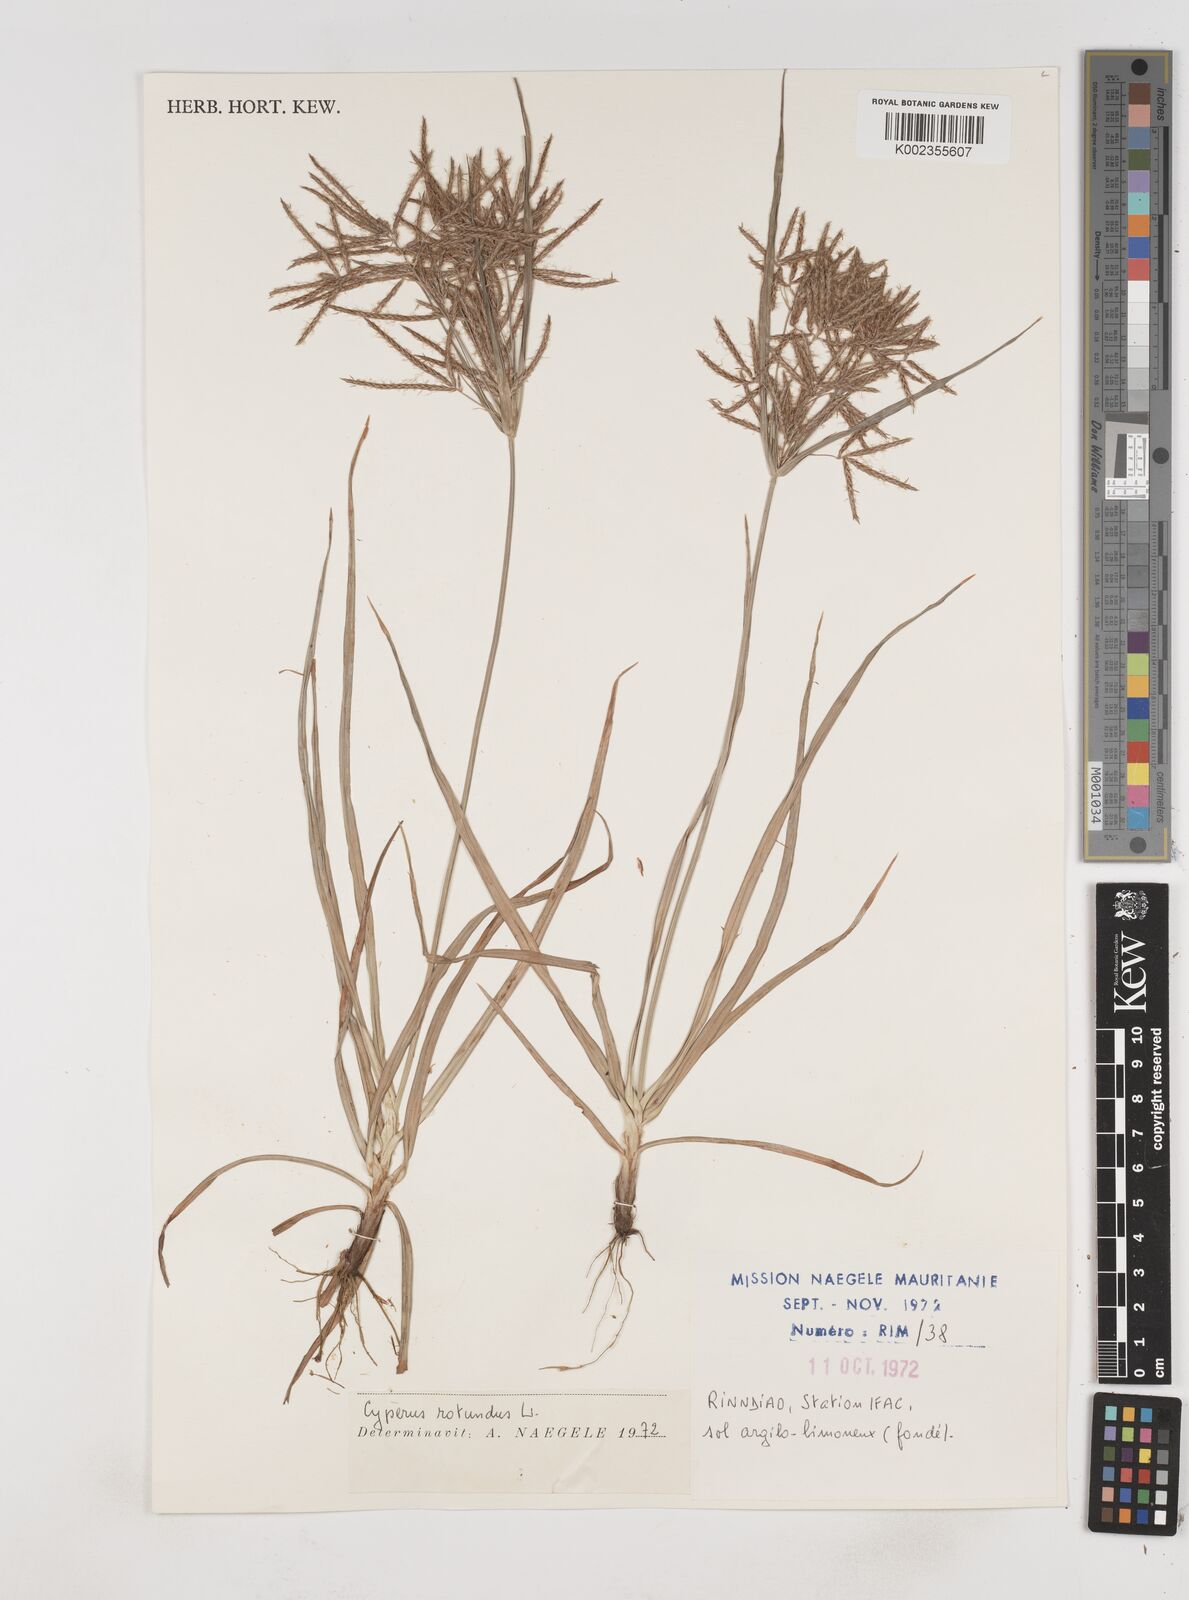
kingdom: Plantae
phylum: Tracheophyta
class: Liliopsida
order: Poales
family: Cyperaceae
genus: Cyperus
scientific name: Cyperus rotundus
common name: Nutgrass
